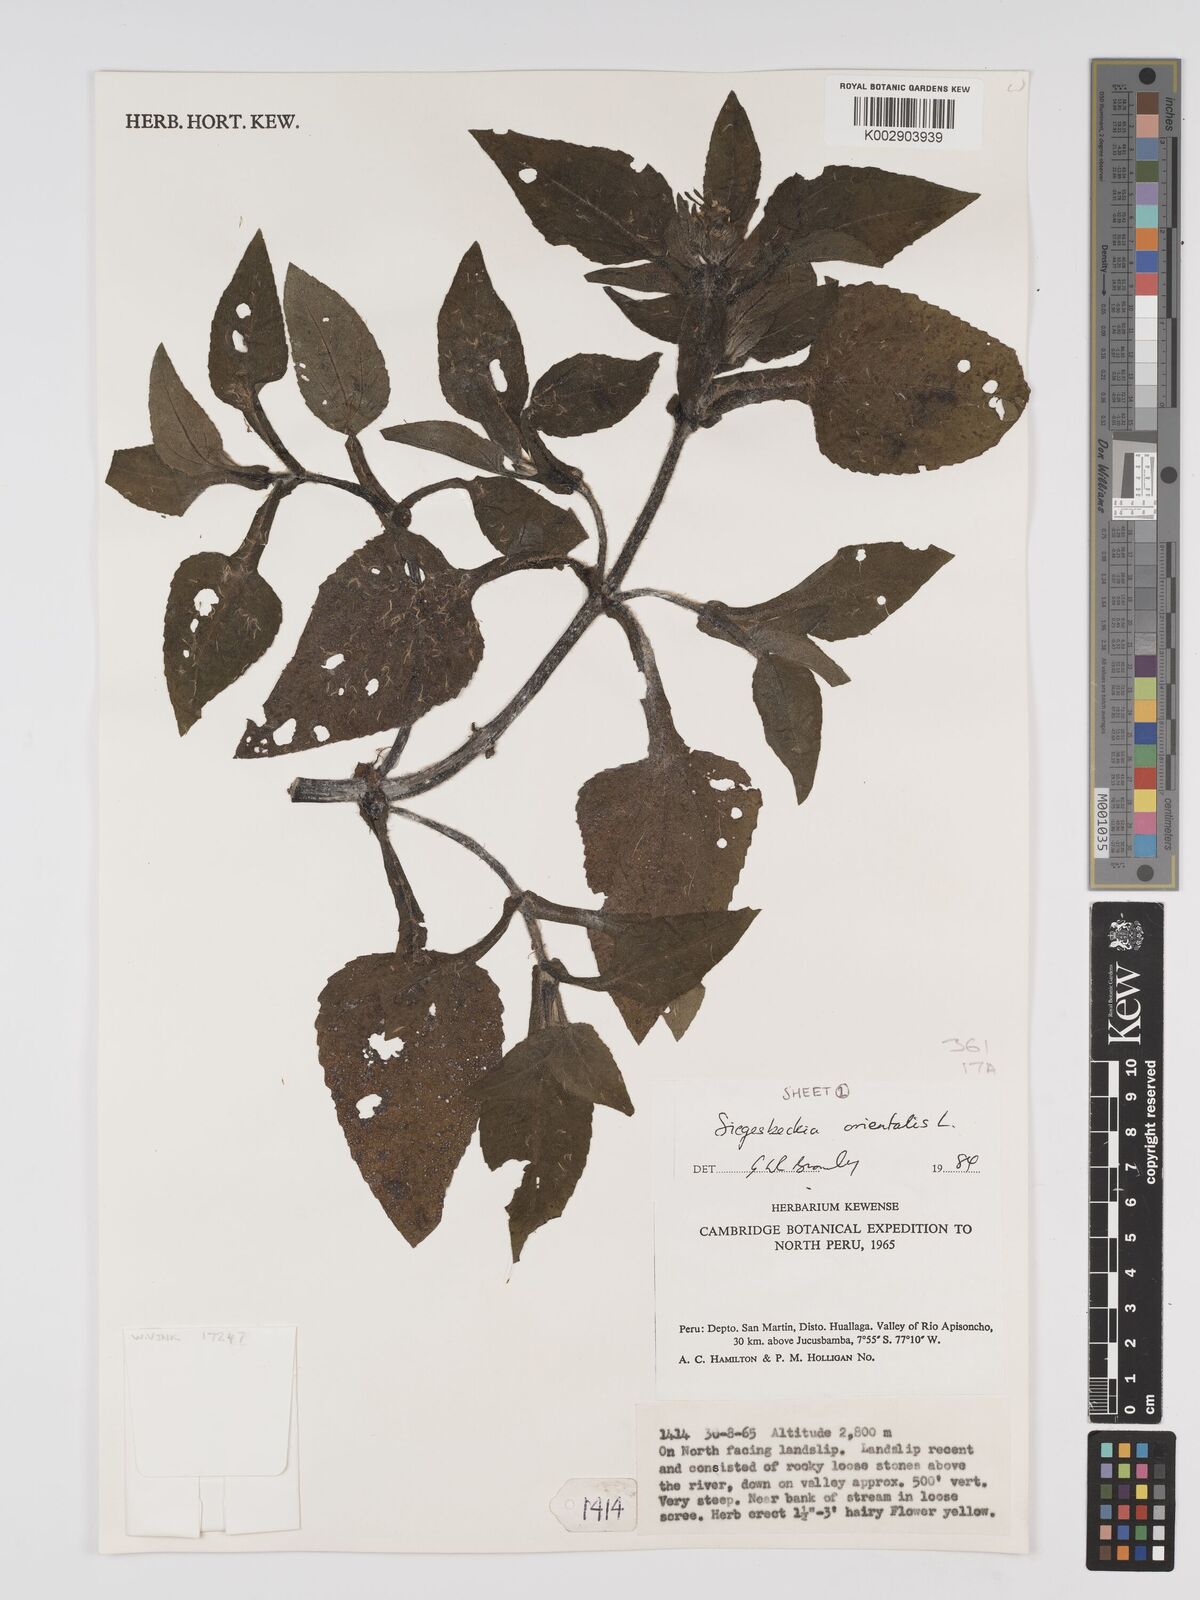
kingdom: Plantae
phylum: Tracheophyta
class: Magnoliopsida
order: Asterales
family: Asteraceae
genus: Sigesbeckia
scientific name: Sigesbeckia orientalis
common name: Eastern st paul's-wort
